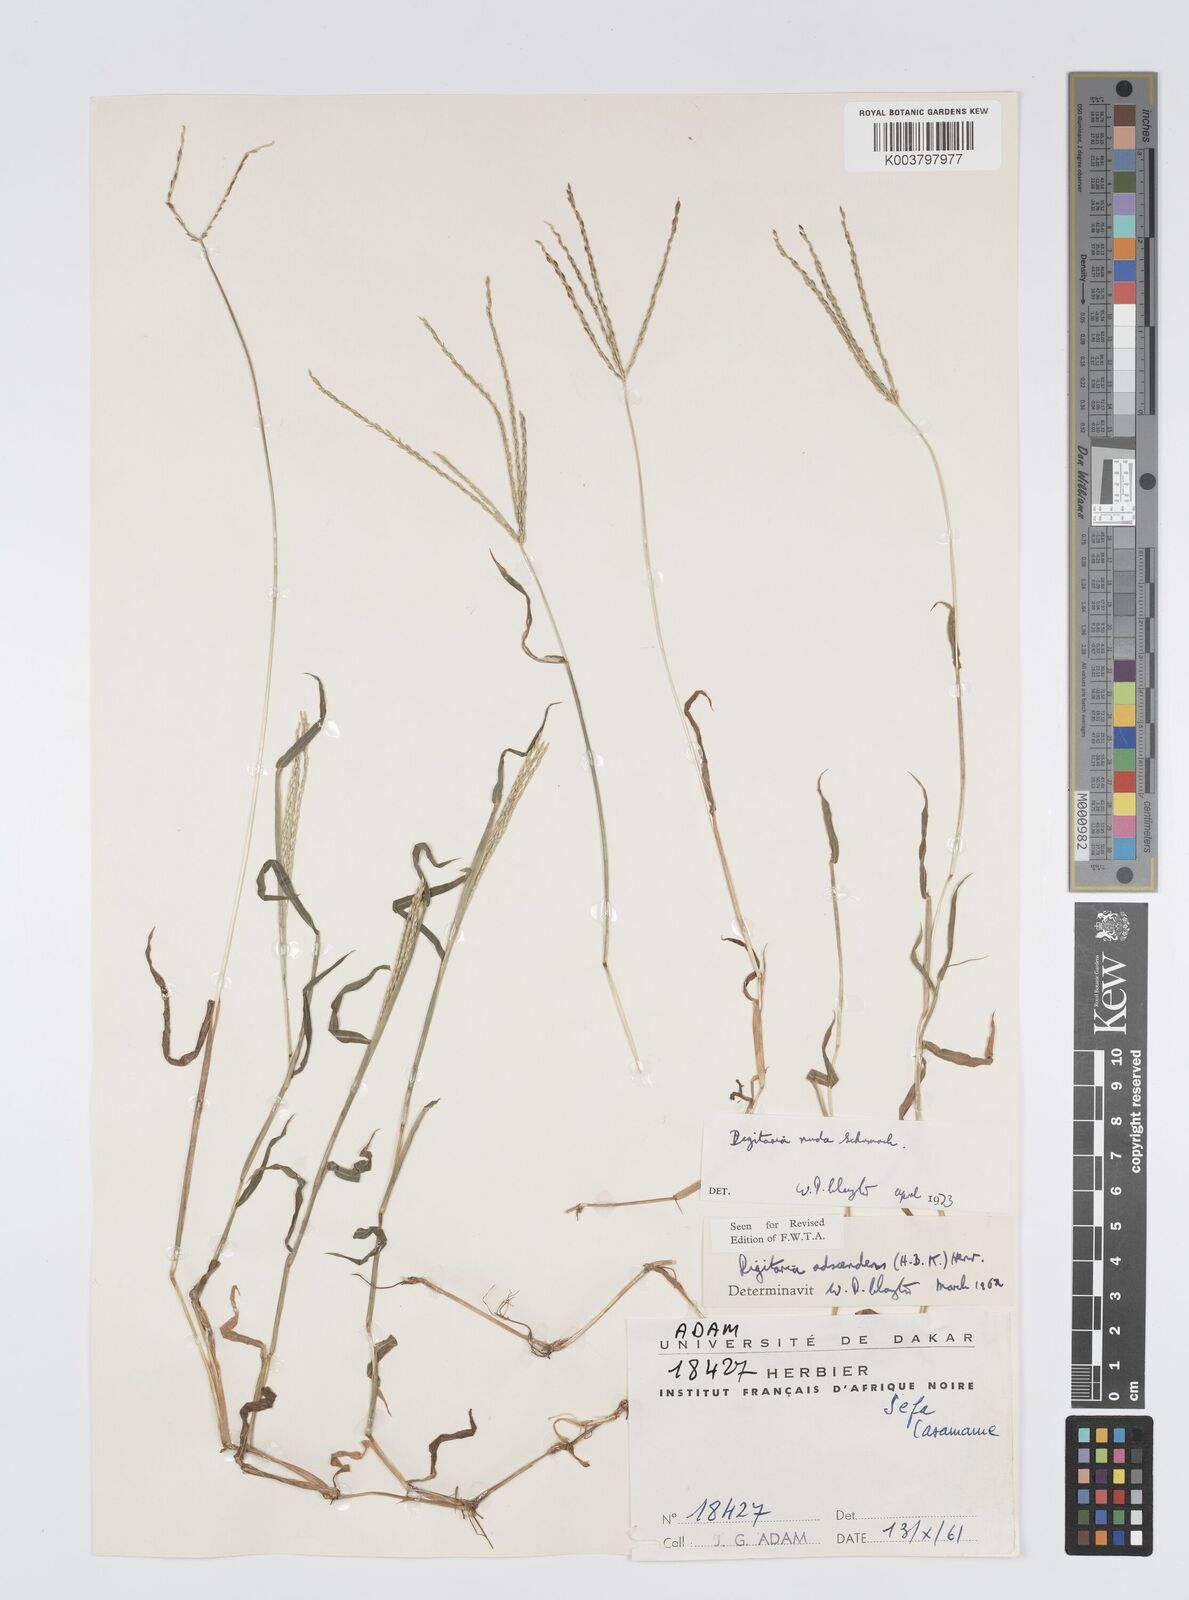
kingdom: Plantae
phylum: Tracheophyta
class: Liliopsida
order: Poales
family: Poaceae
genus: Digitaria
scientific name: Digitaria nuda
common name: Naked crabgrass
